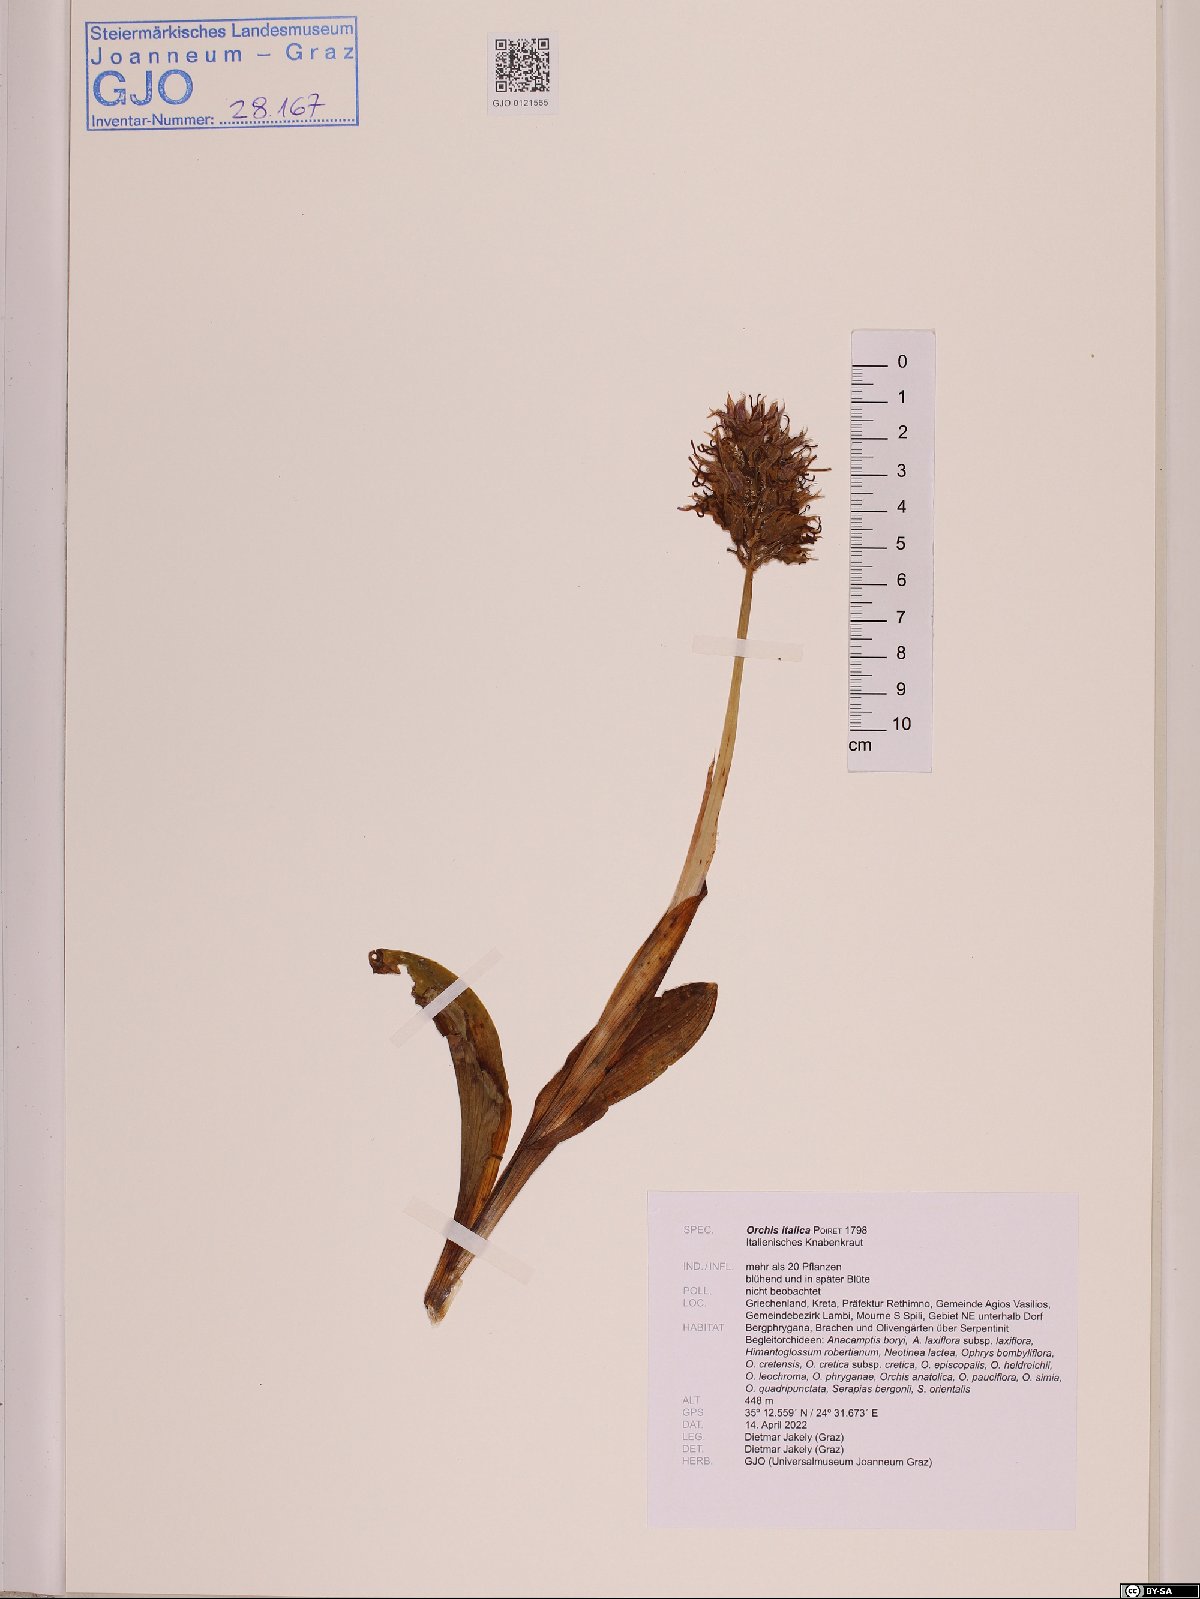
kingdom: Plantae
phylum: Tracheophyta
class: Liliopsida
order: Asparagales
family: Orchidaceae
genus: Orchis
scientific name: Orchis italica
